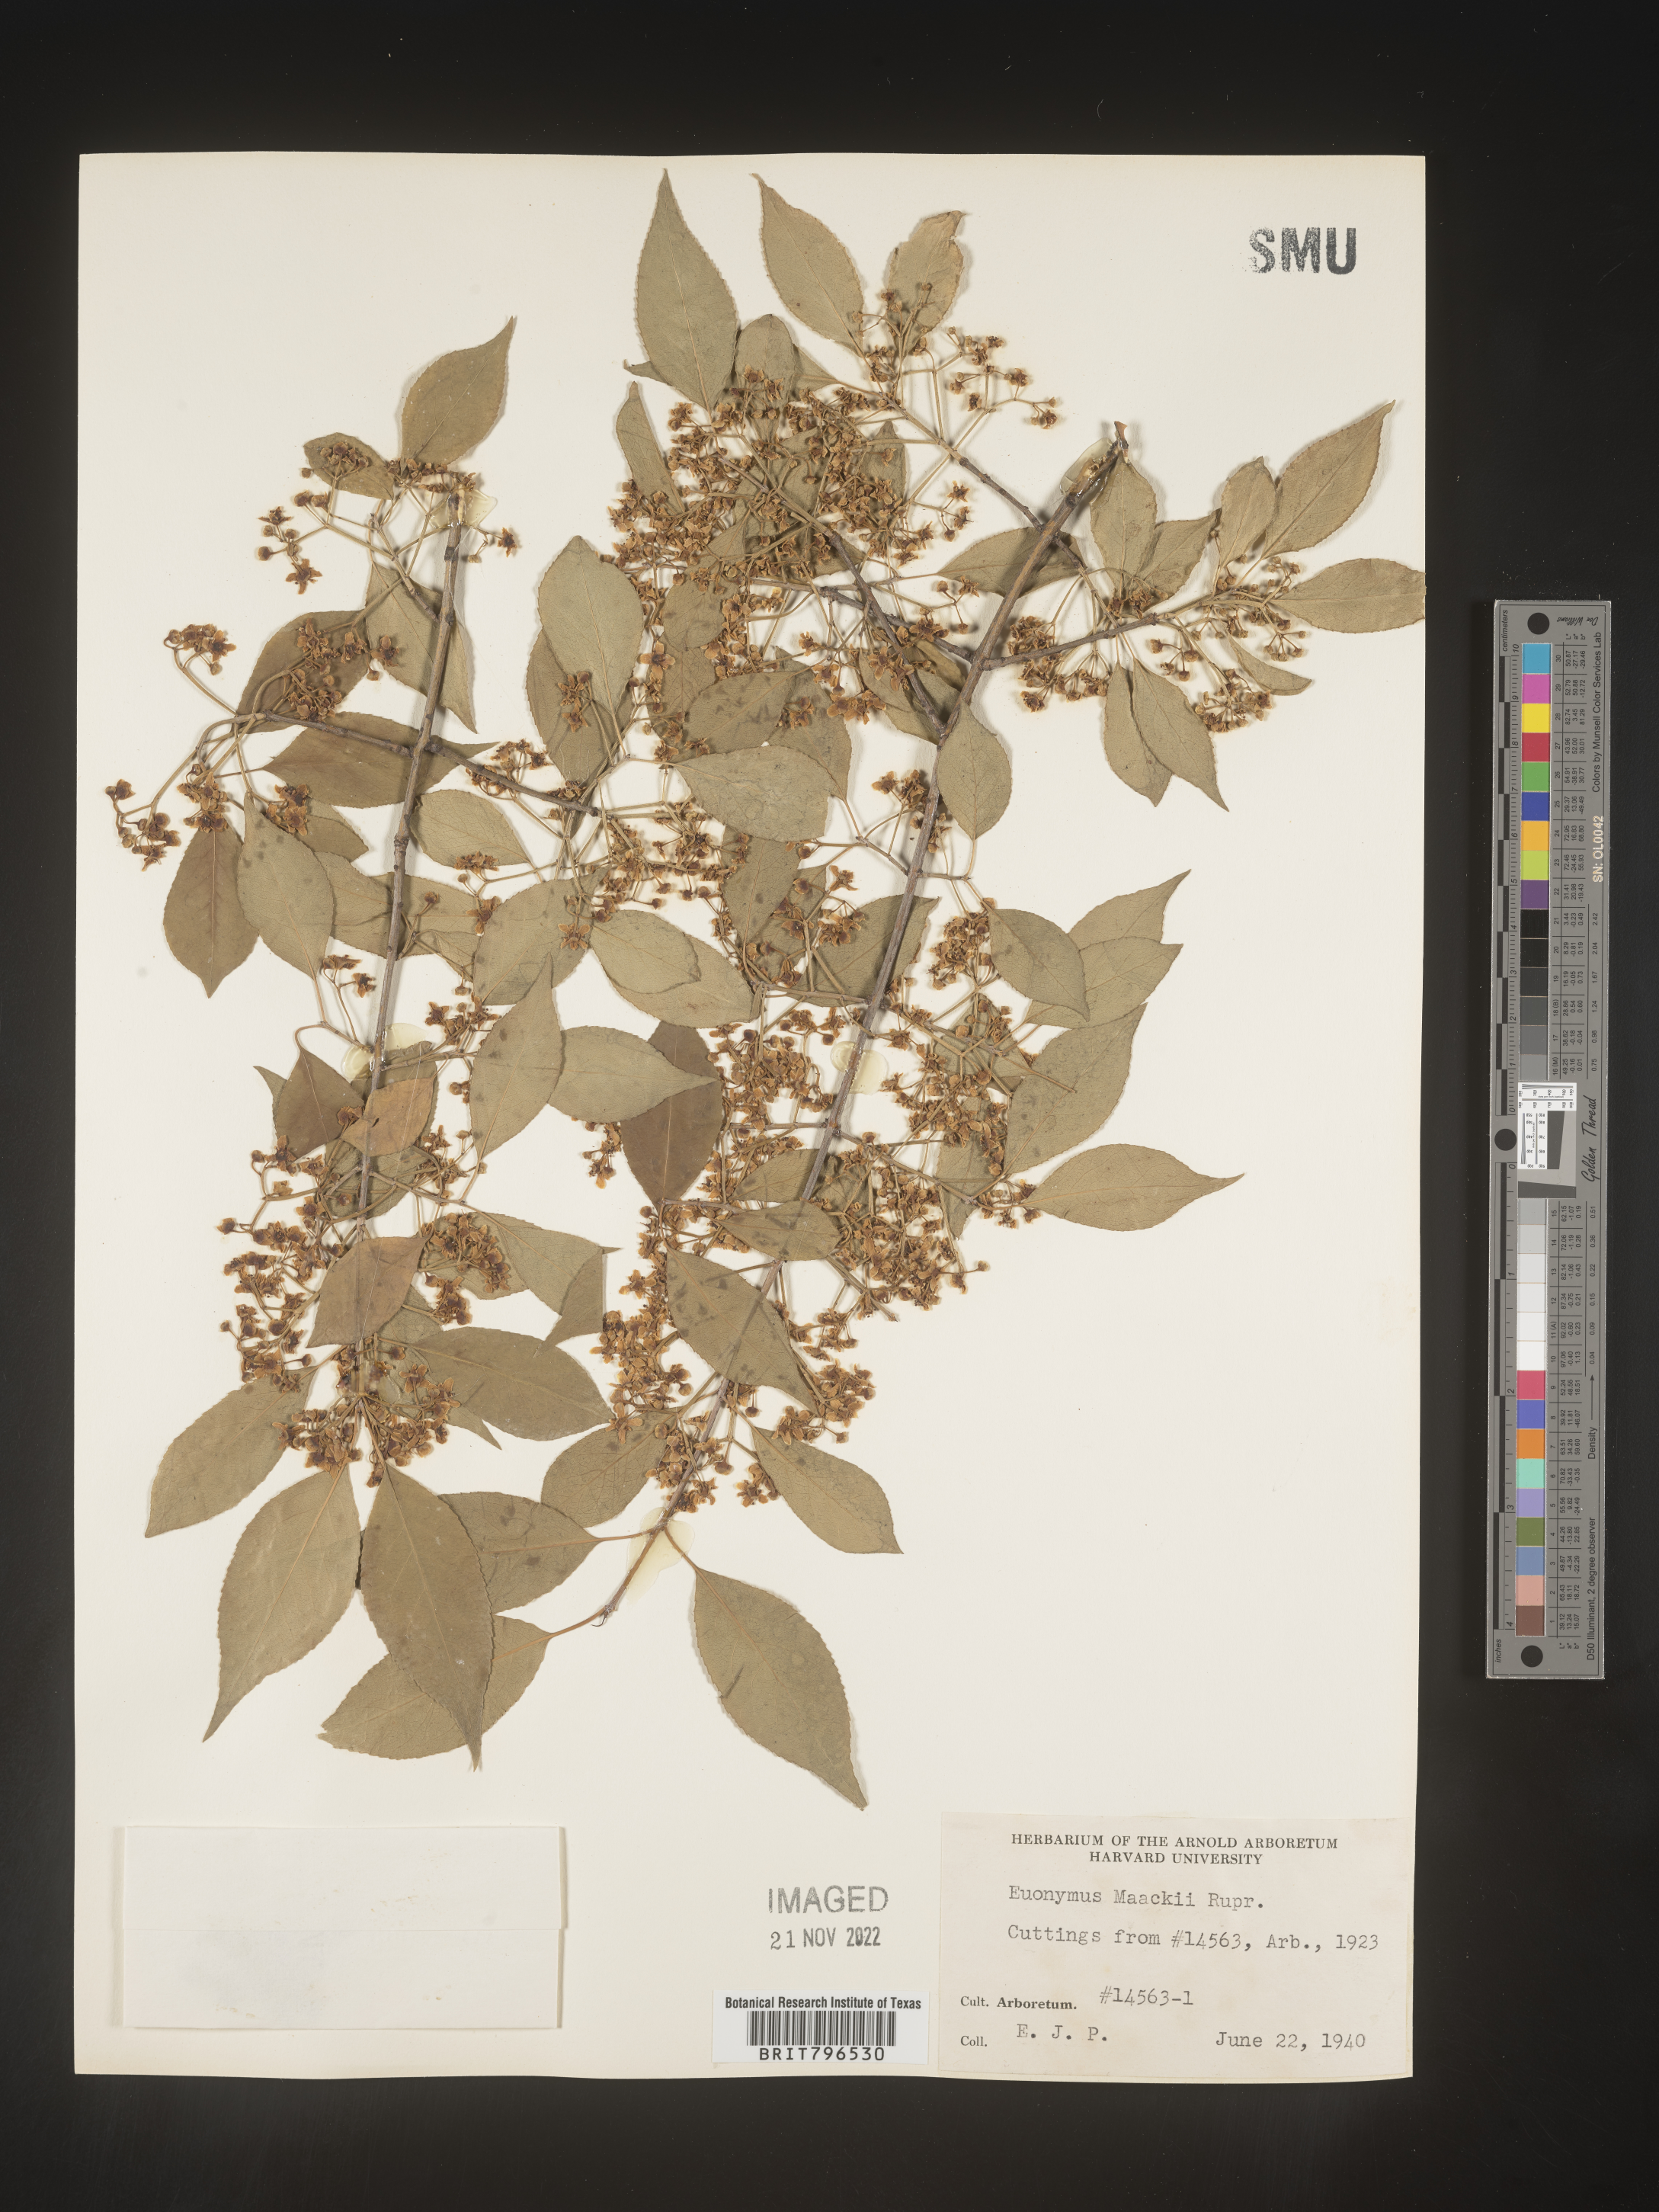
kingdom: Plantae
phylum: Tracheophyta
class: Magnoliopsida
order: Celastrales
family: Celastraceae
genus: Euonymus
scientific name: Euonymus
